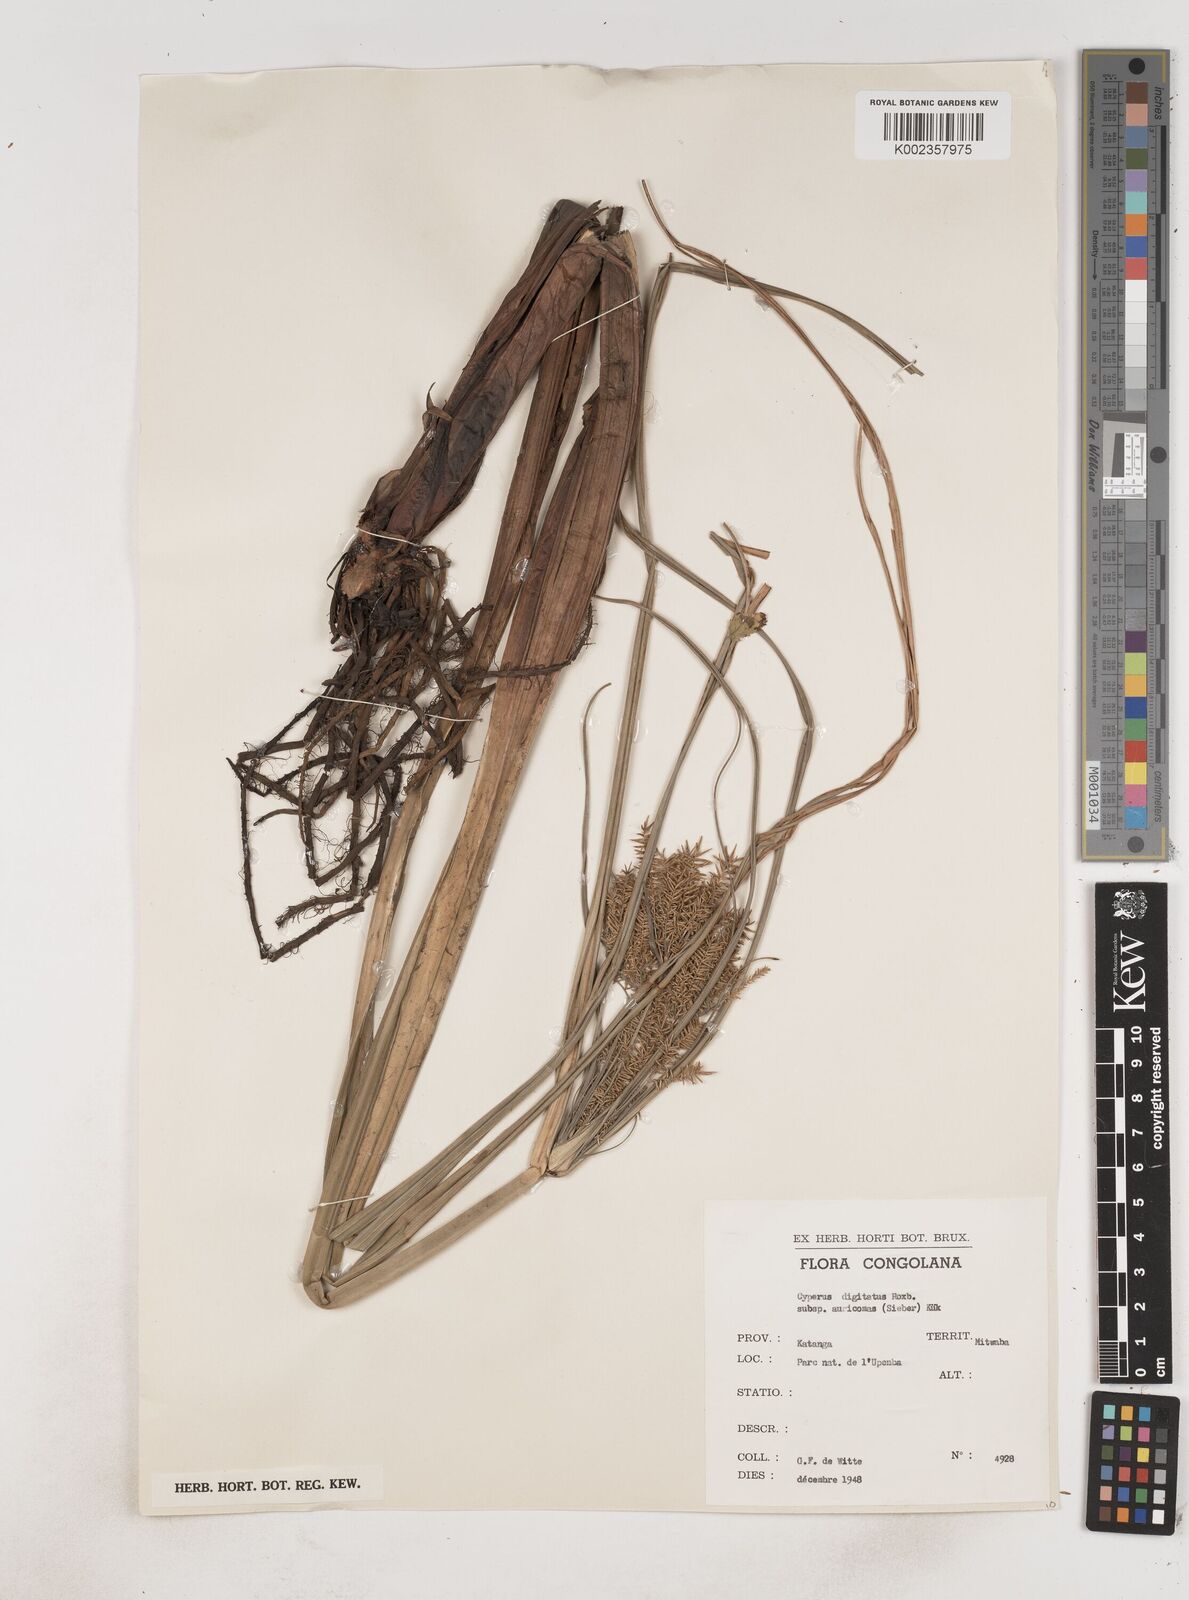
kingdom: Plantae
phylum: Tracheophyta
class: Liliopsida
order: Poales
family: Cyperaceae
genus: Cyperus
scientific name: Cyperus digitatus
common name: Finger flatsedge
